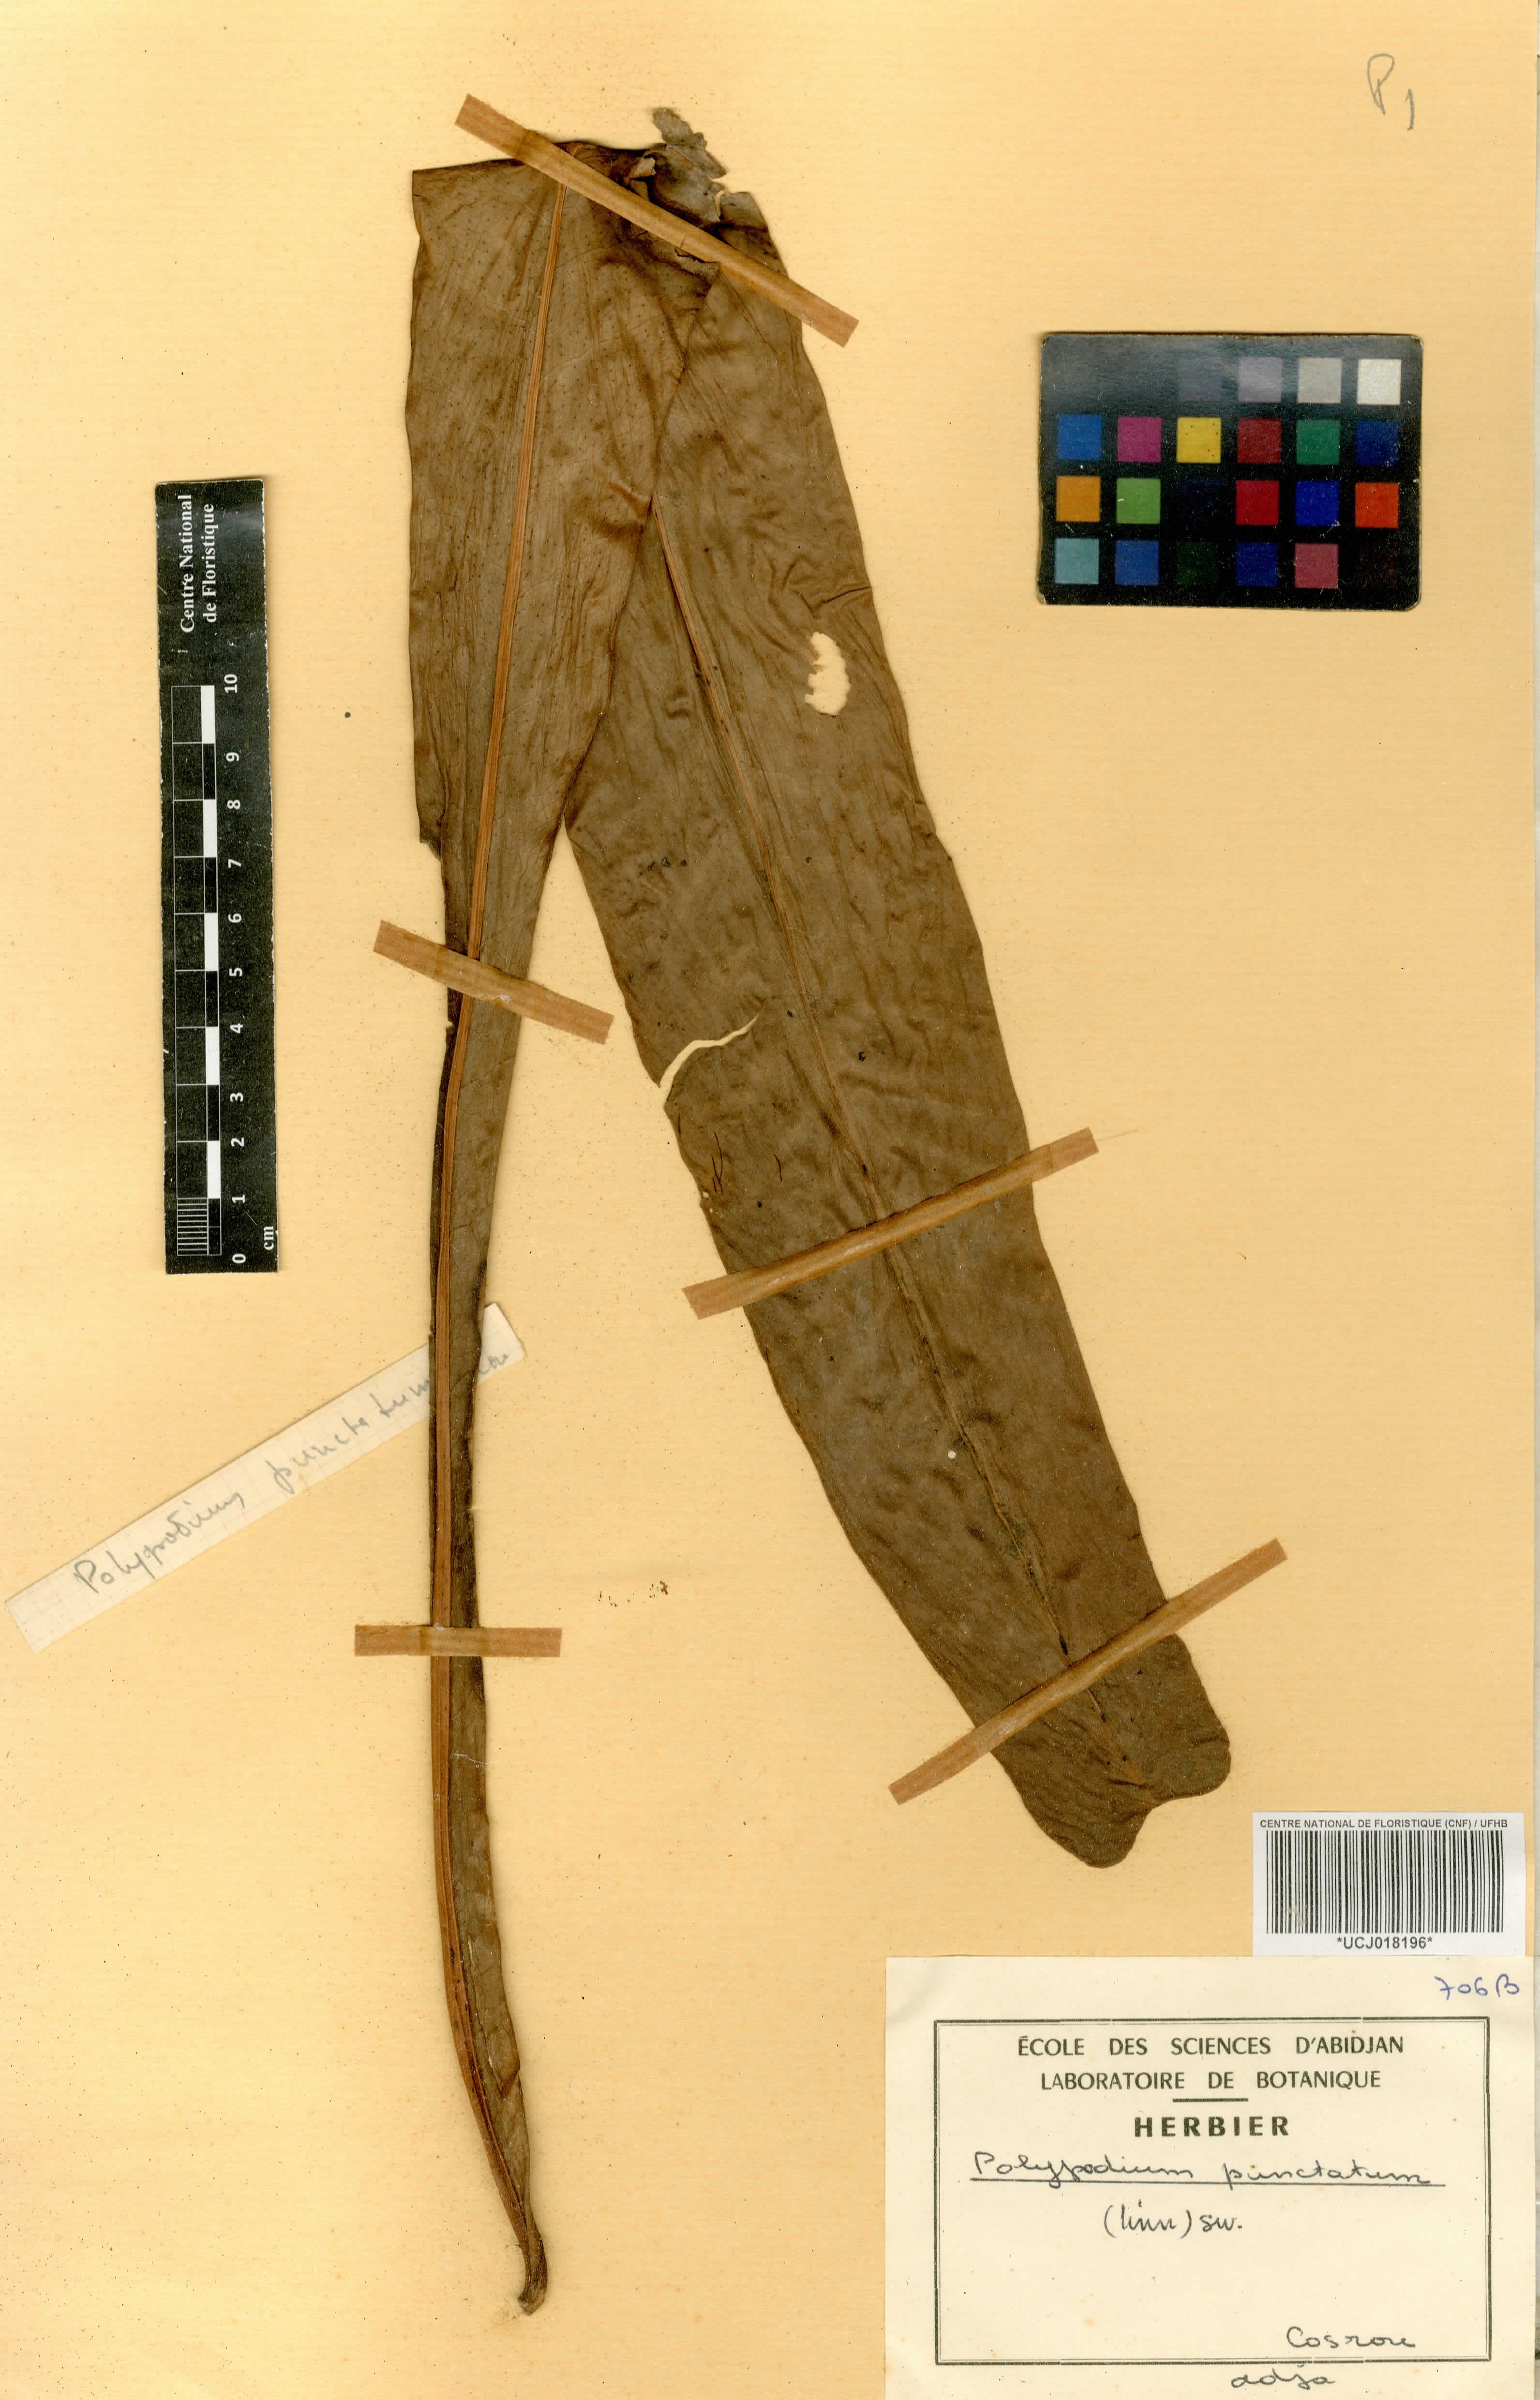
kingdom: Plantae
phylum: Tracheophyta
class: Polypodiopsida
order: Polypodiales
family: Polypodiaceae
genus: Microsorum
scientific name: Microsorum punctatum
